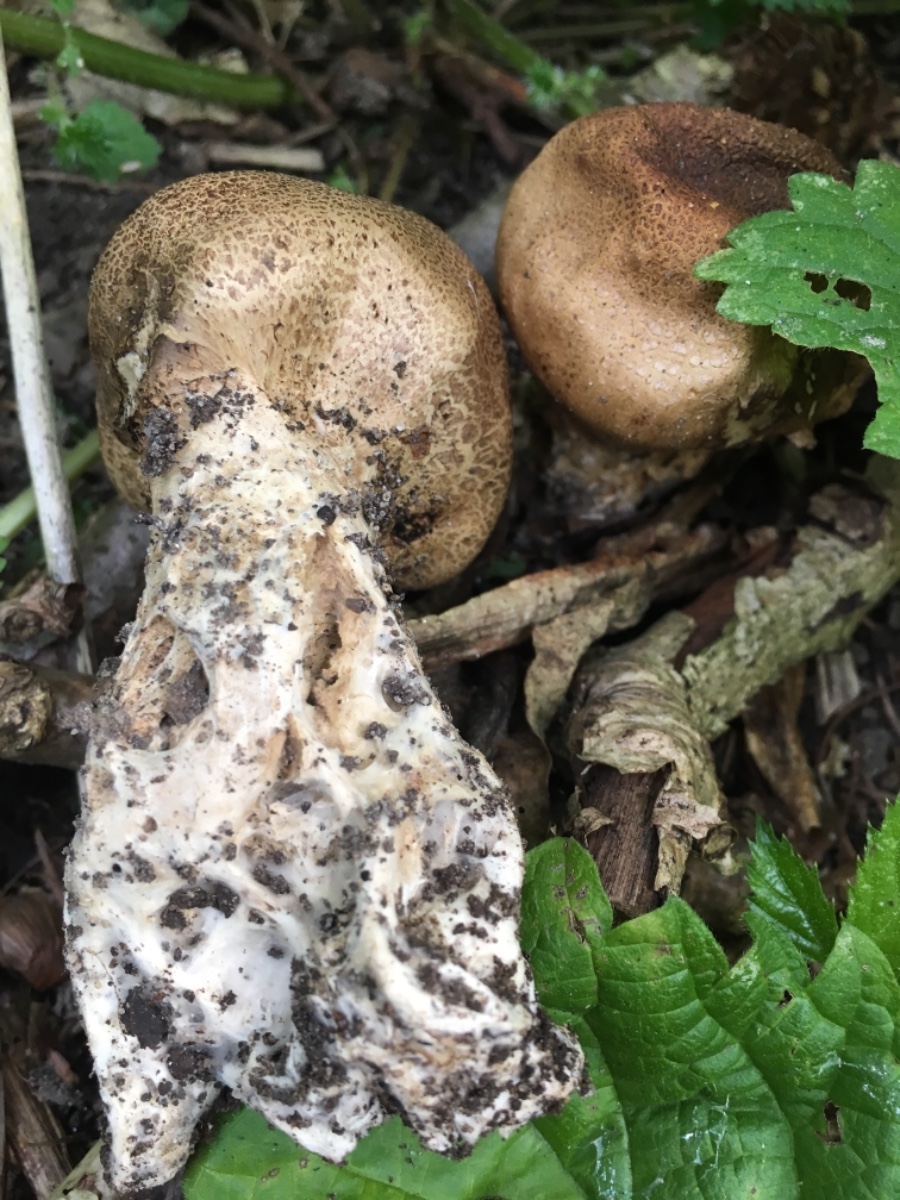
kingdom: Fungi
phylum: Basidiomycota
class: Agaricomycetes
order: Boletales
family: Sclerodermataceae
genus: Scleroderma
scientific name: Scleroderma verrucosum
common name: stilket bruskbold
